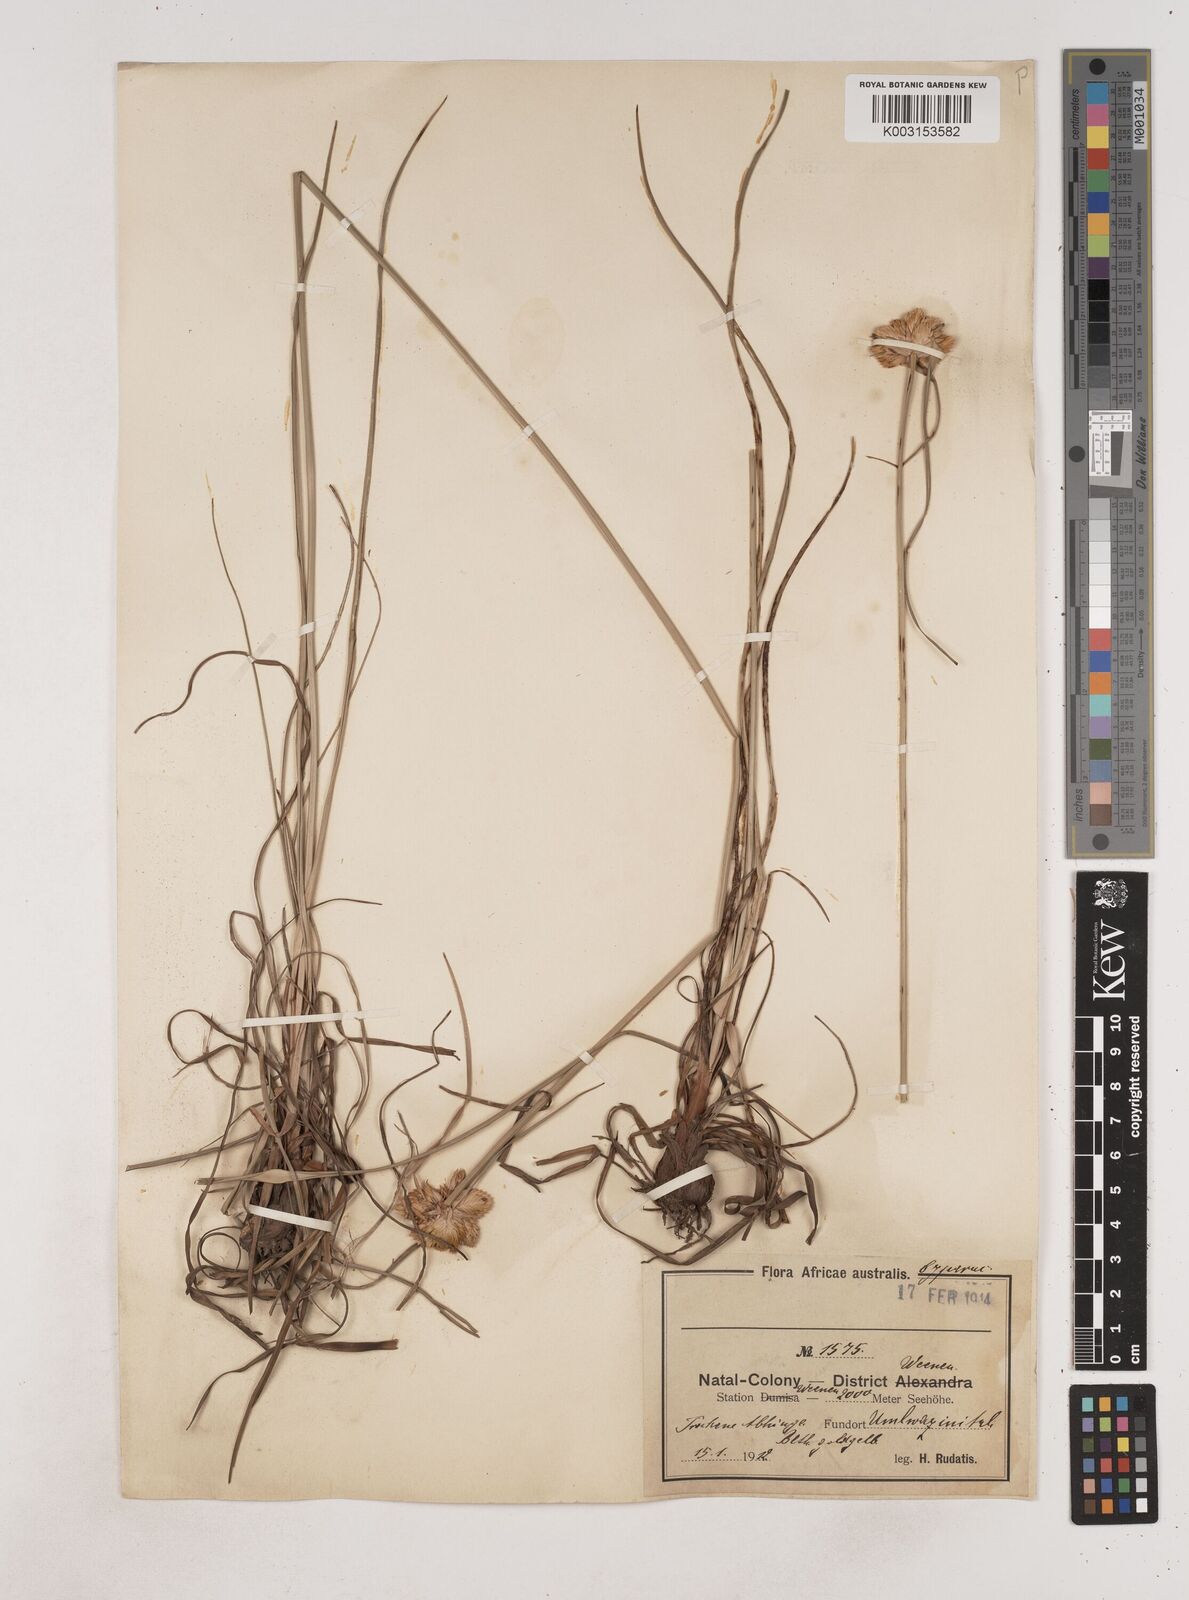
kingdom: Plantae
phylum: Tracheophyta
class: Liliopsida
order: Poales
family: Cyperaceae
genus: Cyperus
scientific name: Cyperus niveus
